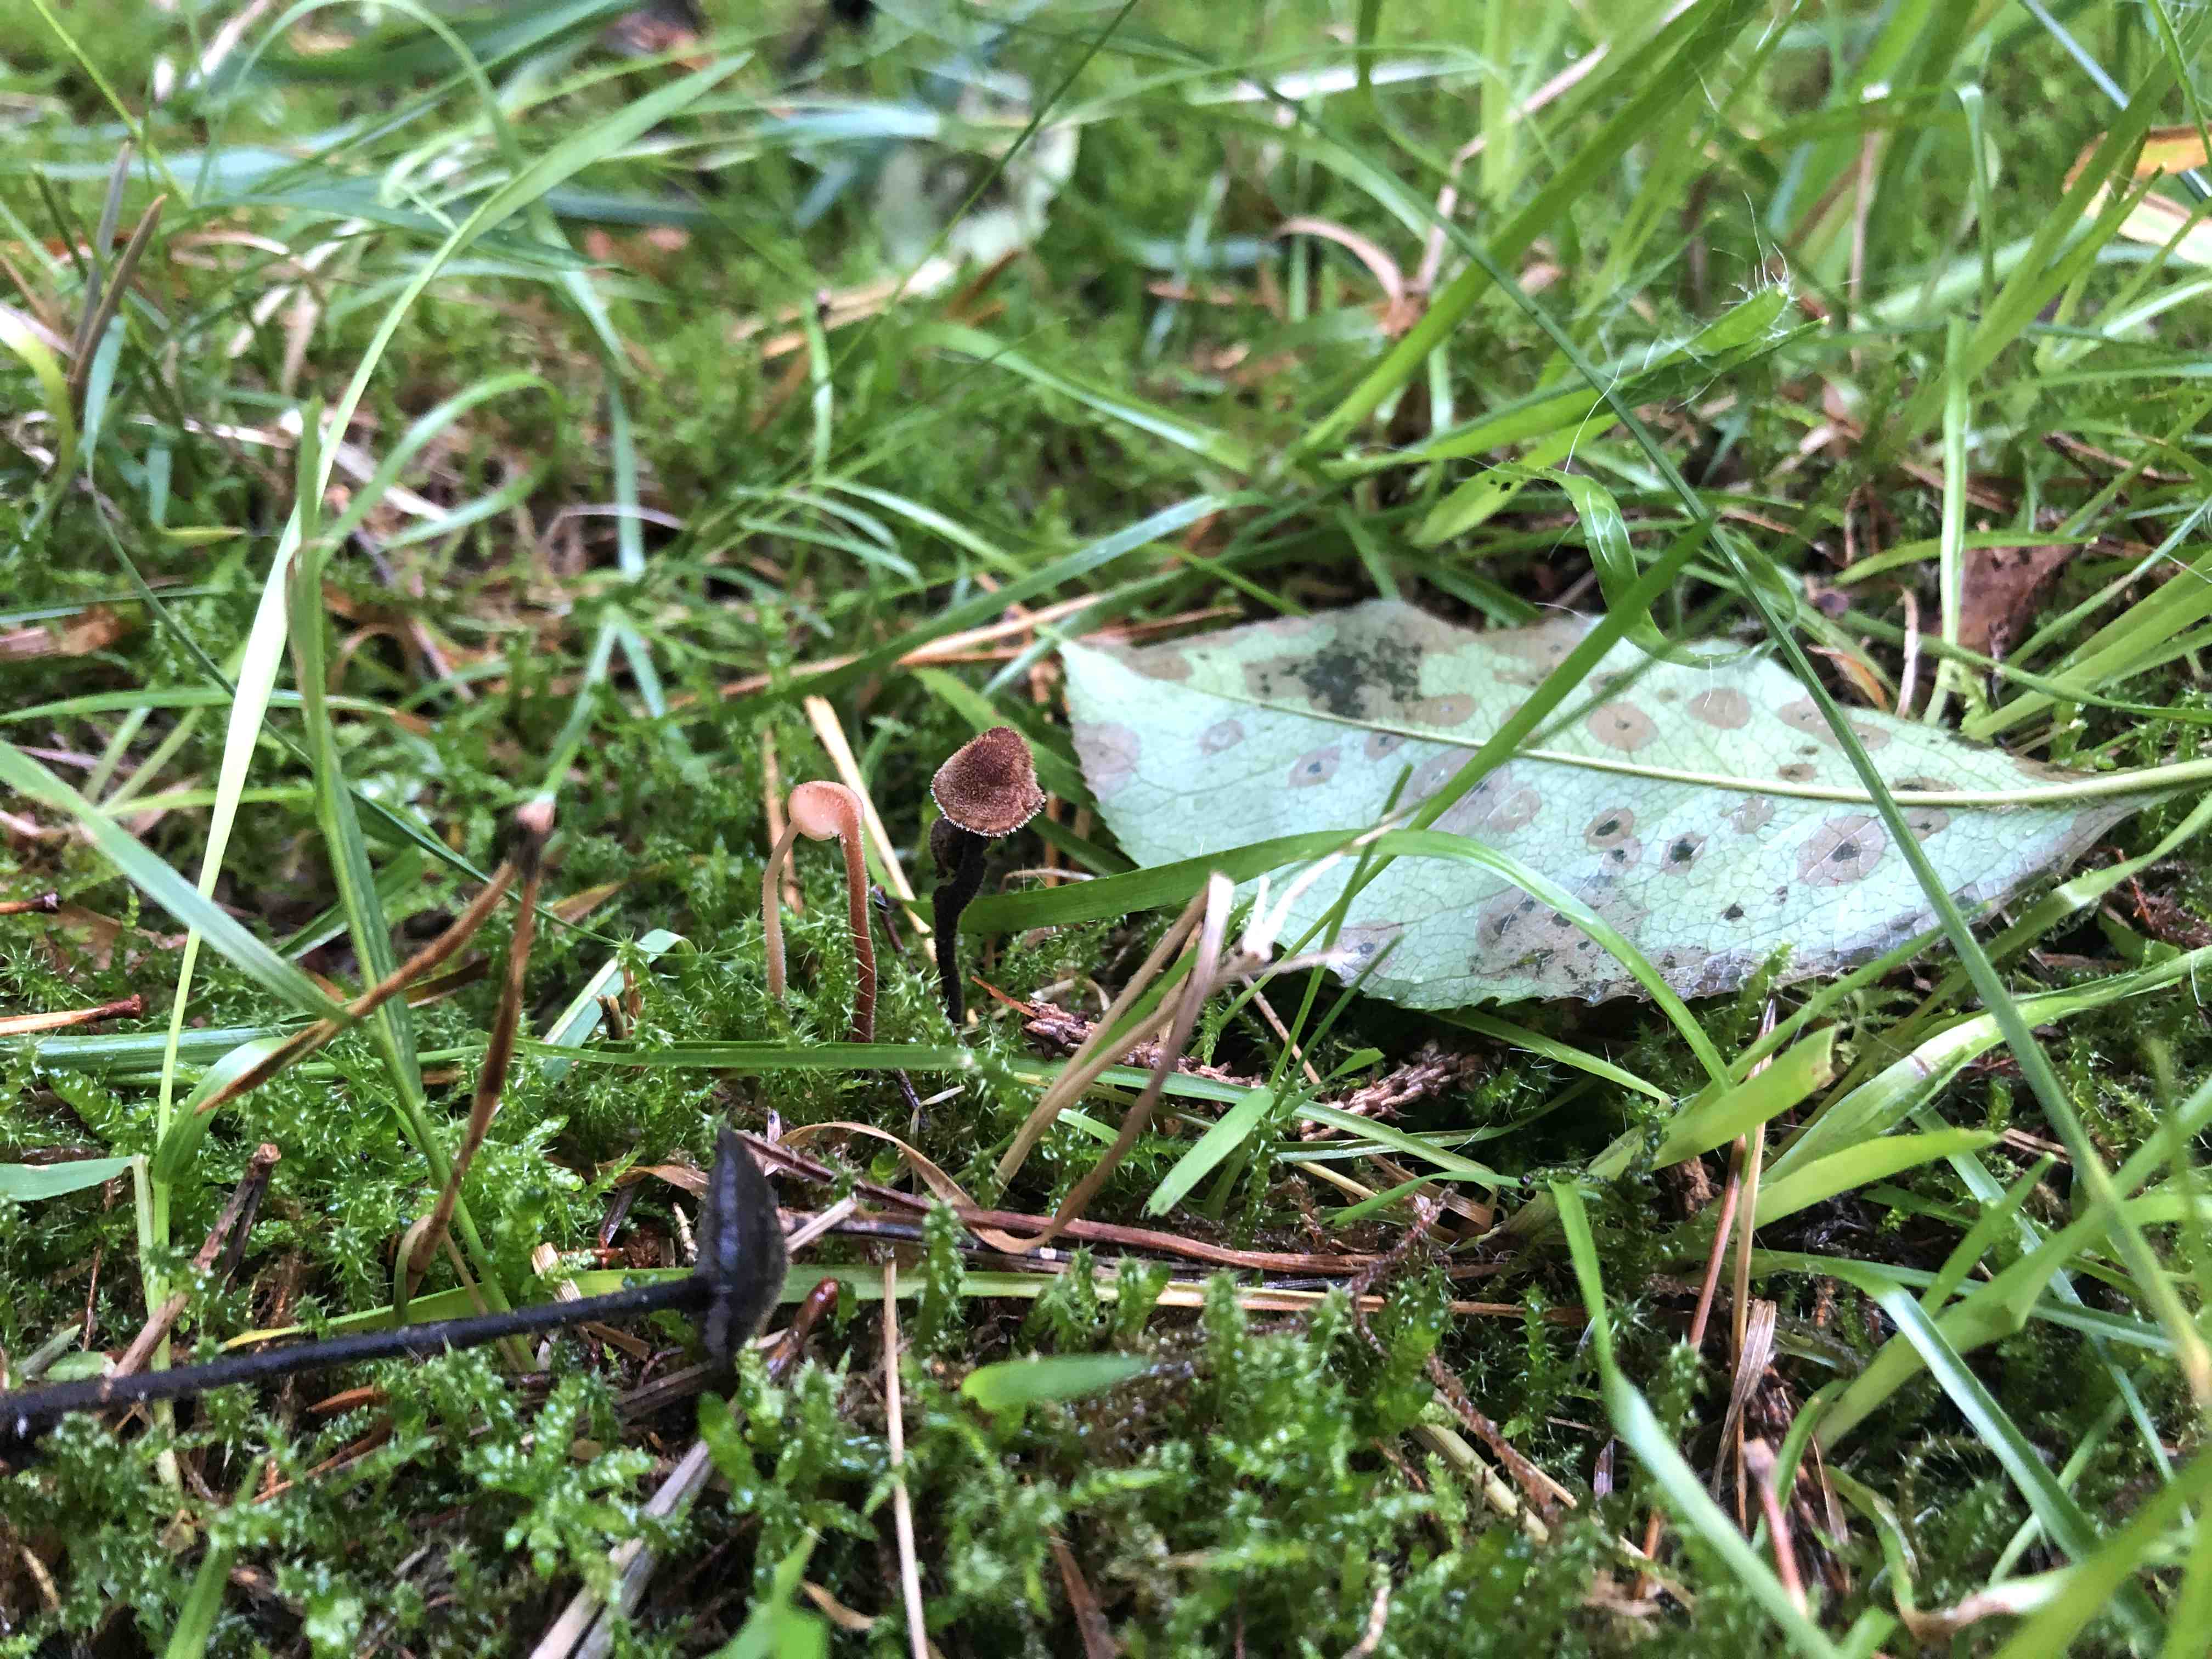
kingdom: Fungi
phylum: Basidiomycota
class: Agaricomycetes
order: Russulales
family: Auriscalpiaceae
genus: Auriscalpium
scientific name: Auriscalpium vulgare
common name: koglepigsvamp
